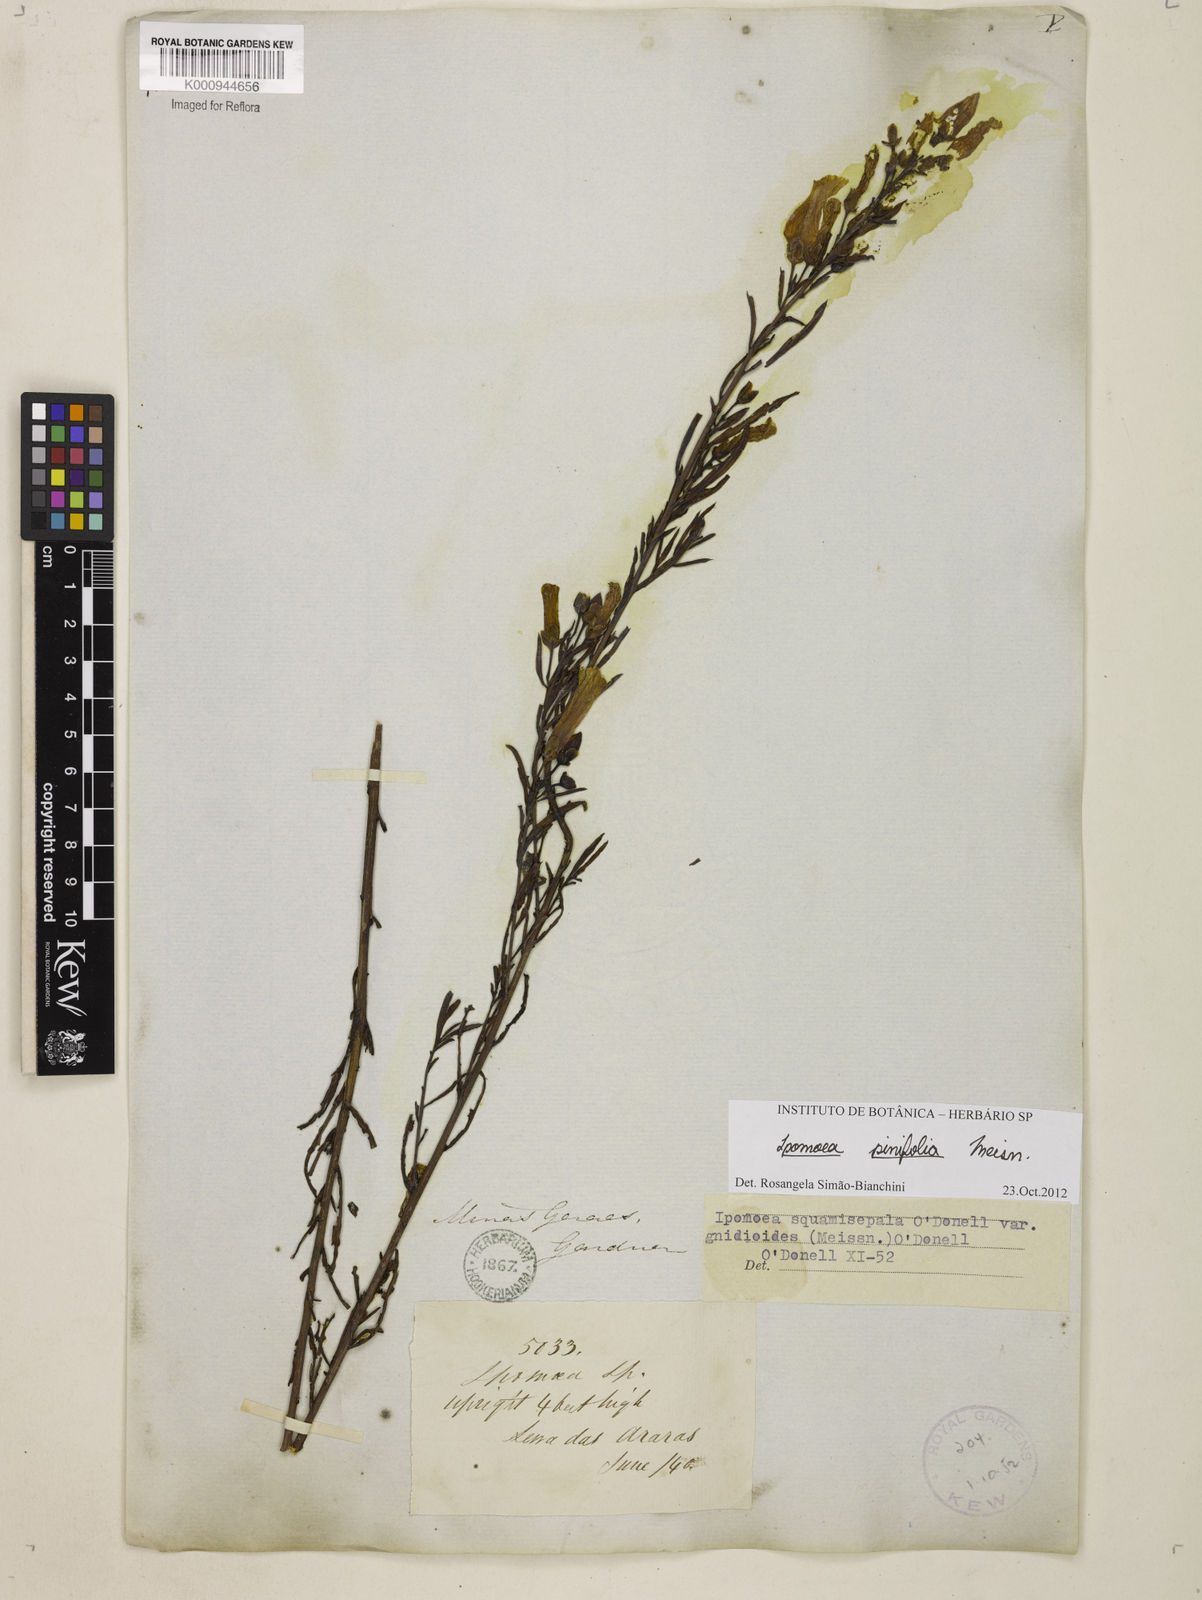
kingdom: Plantae
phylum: Tracheophyta
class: Magnoliopsida
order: Solanales
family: Convolvulaceae
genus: Ipomoea
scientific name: Ipomoea pinifolia
